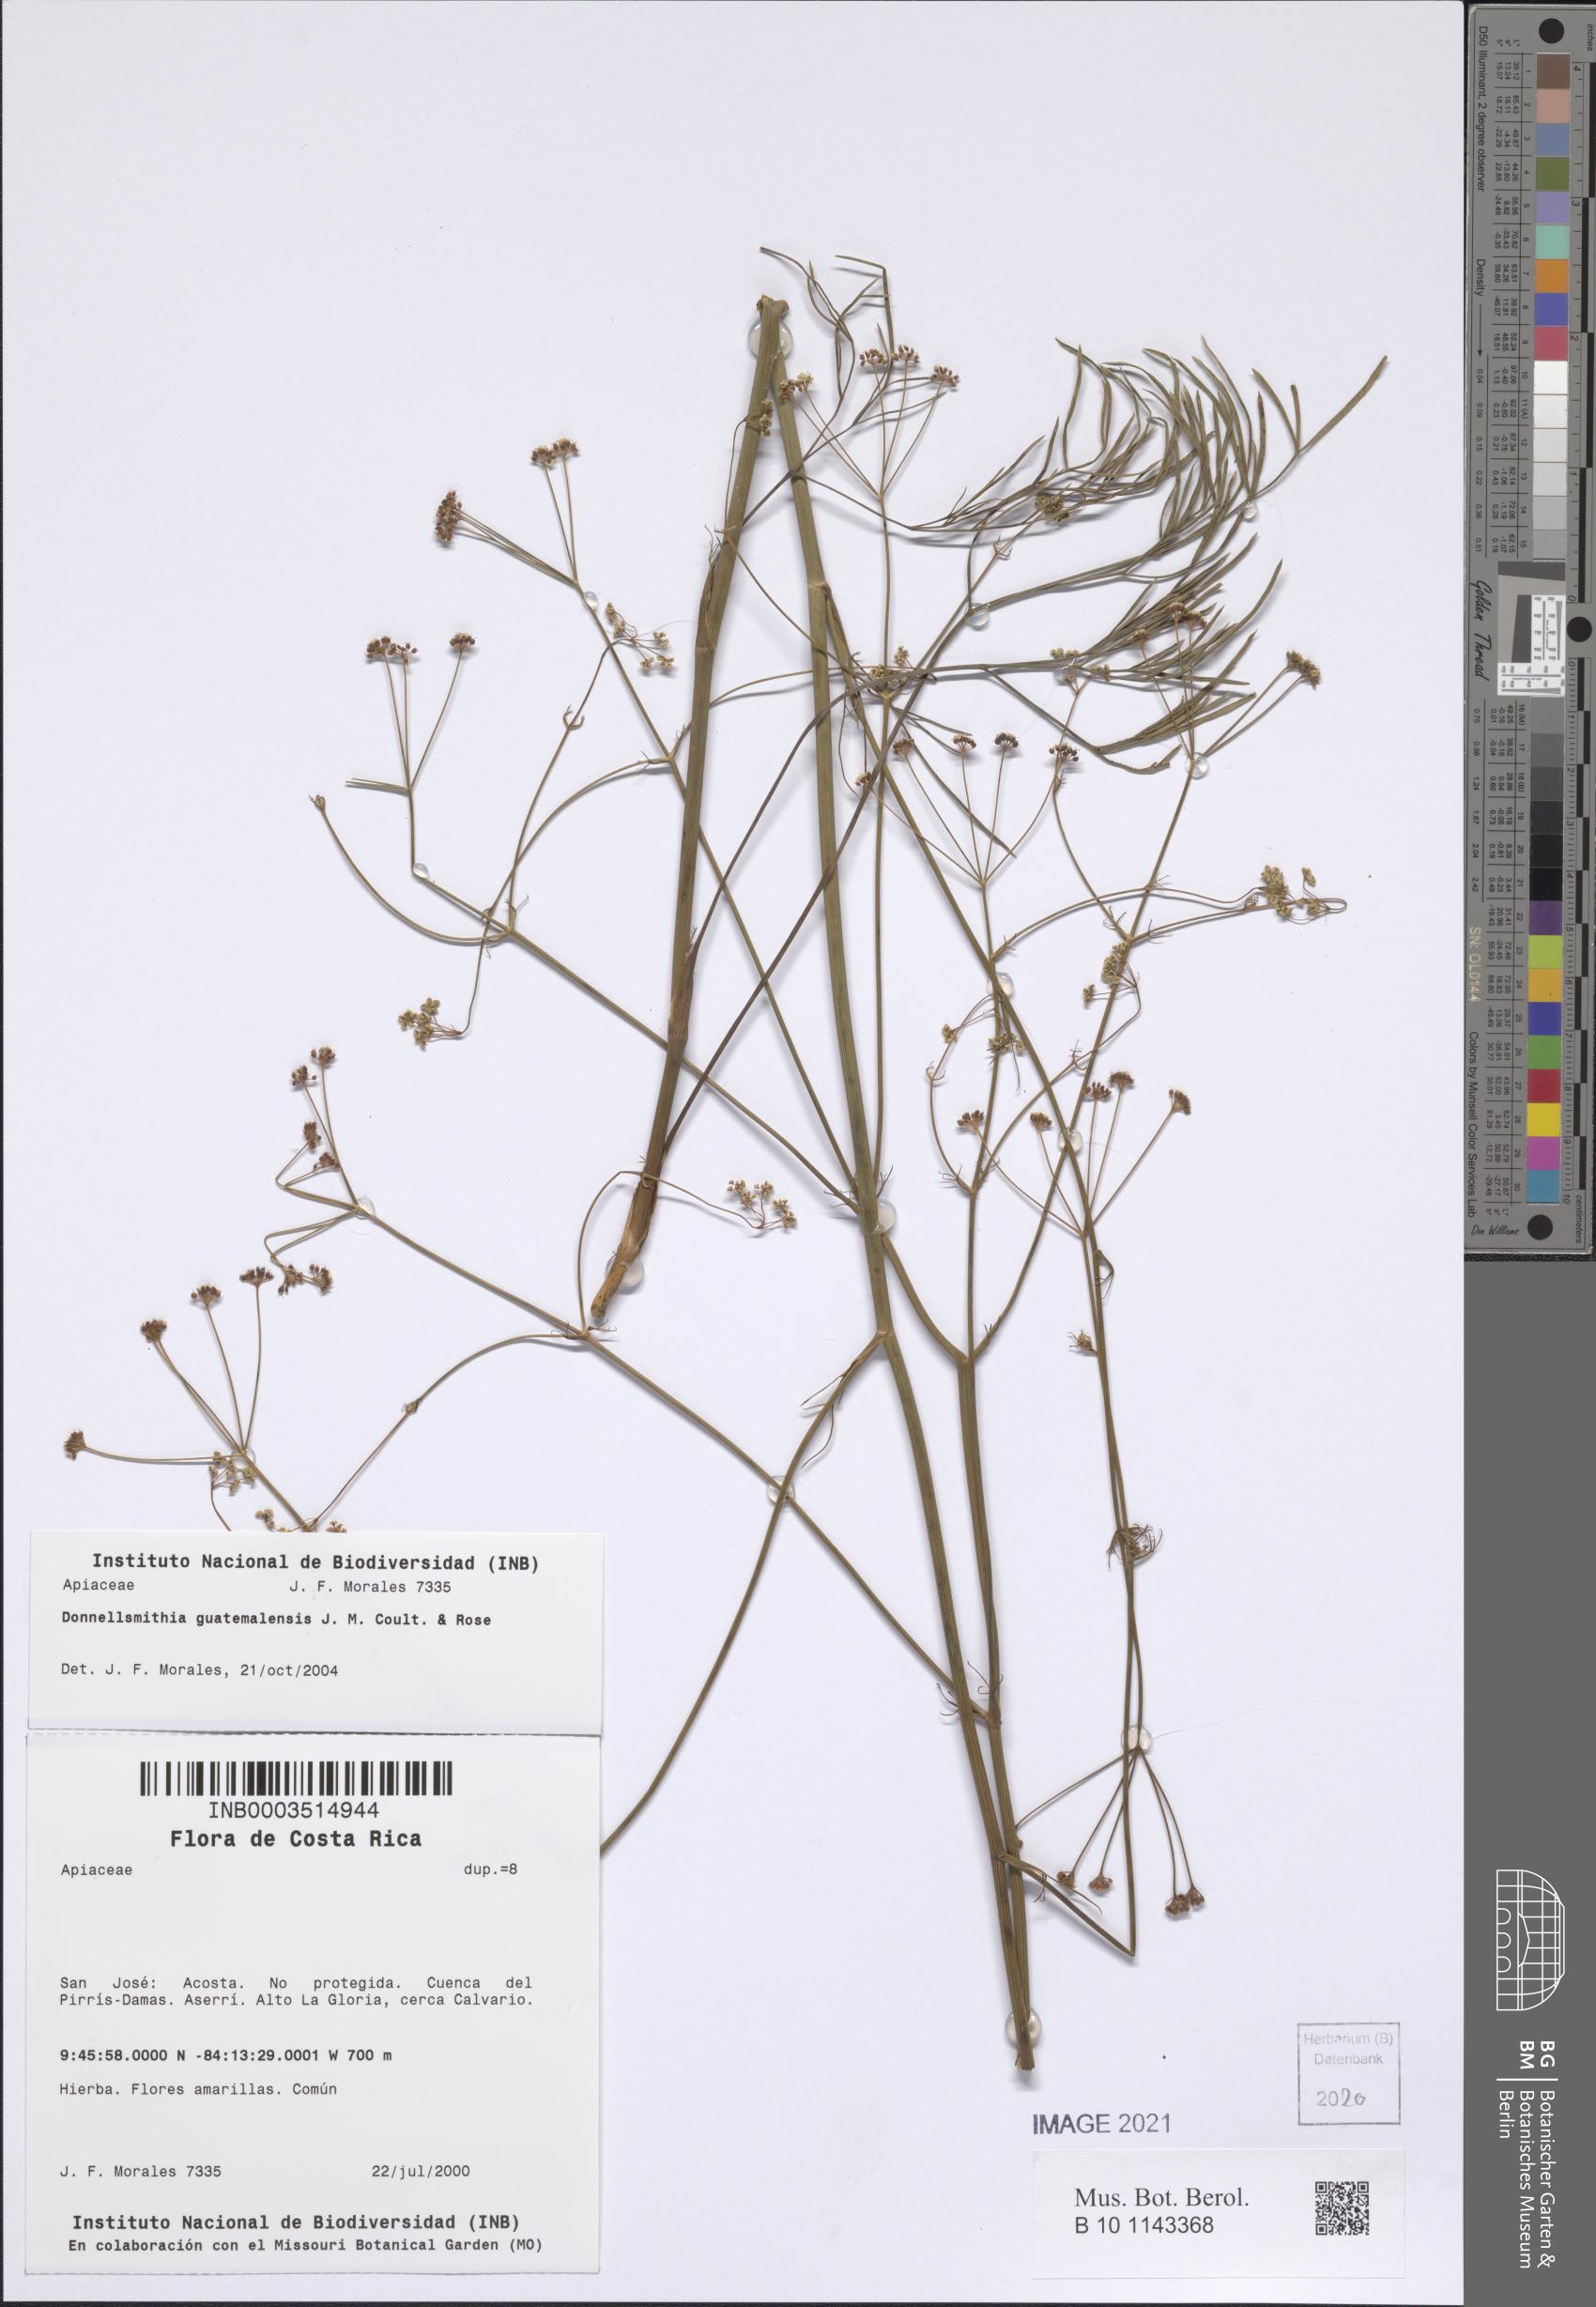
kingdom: Plantae
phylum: Tracheophyta
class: Magnoliopsida
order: Apiales
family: Apiaceae
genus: Donnellsmithia
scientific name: Donnellsmithia guatemalensis
